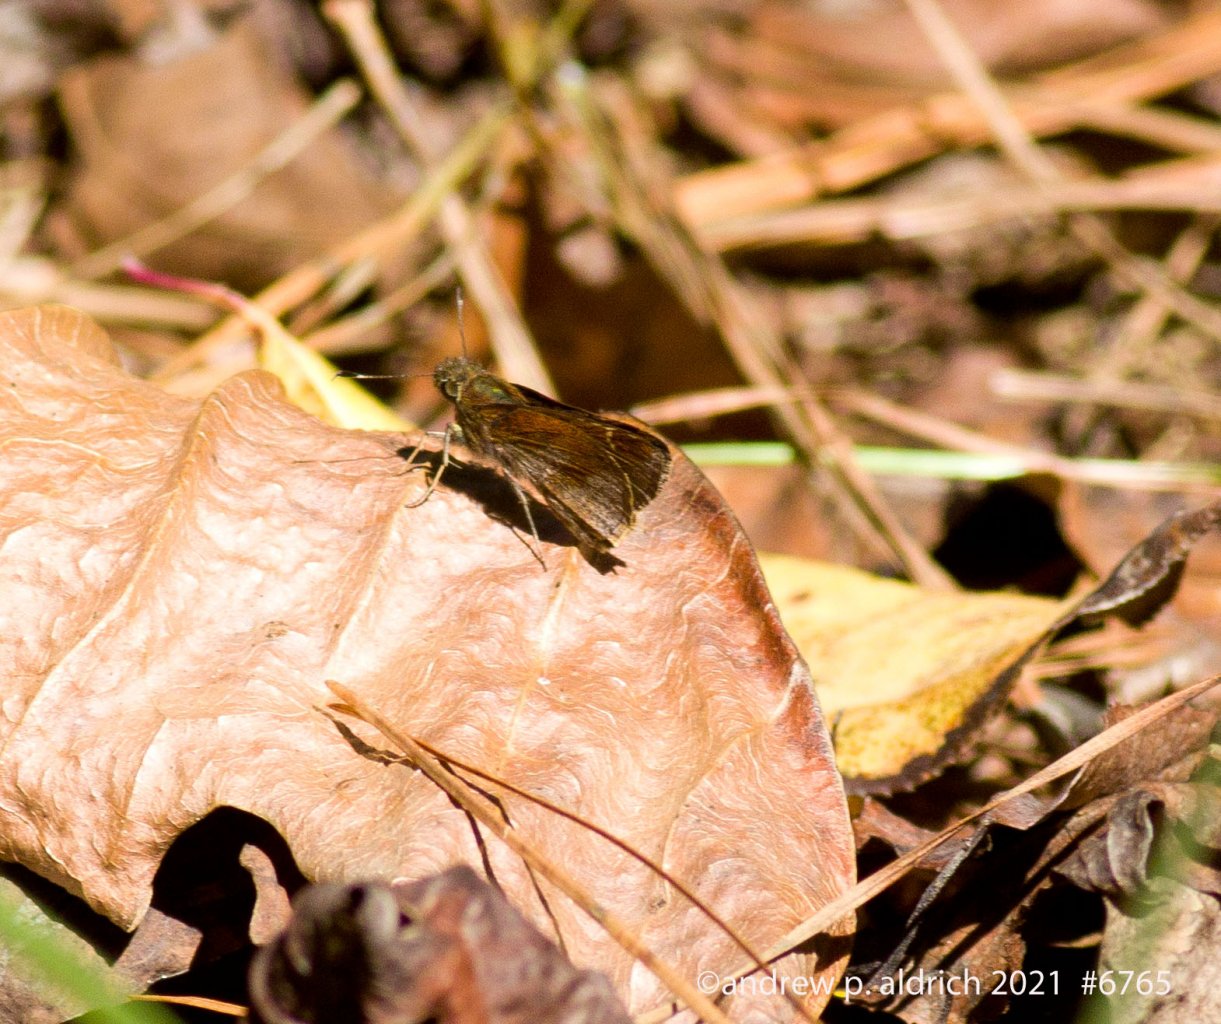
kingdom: Animalia
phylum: Arthropoda
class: Insecta
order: Lepidoptera
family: Hesperiidae
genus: Lerema
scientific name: Lerema accius
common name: Clouded Skipper
